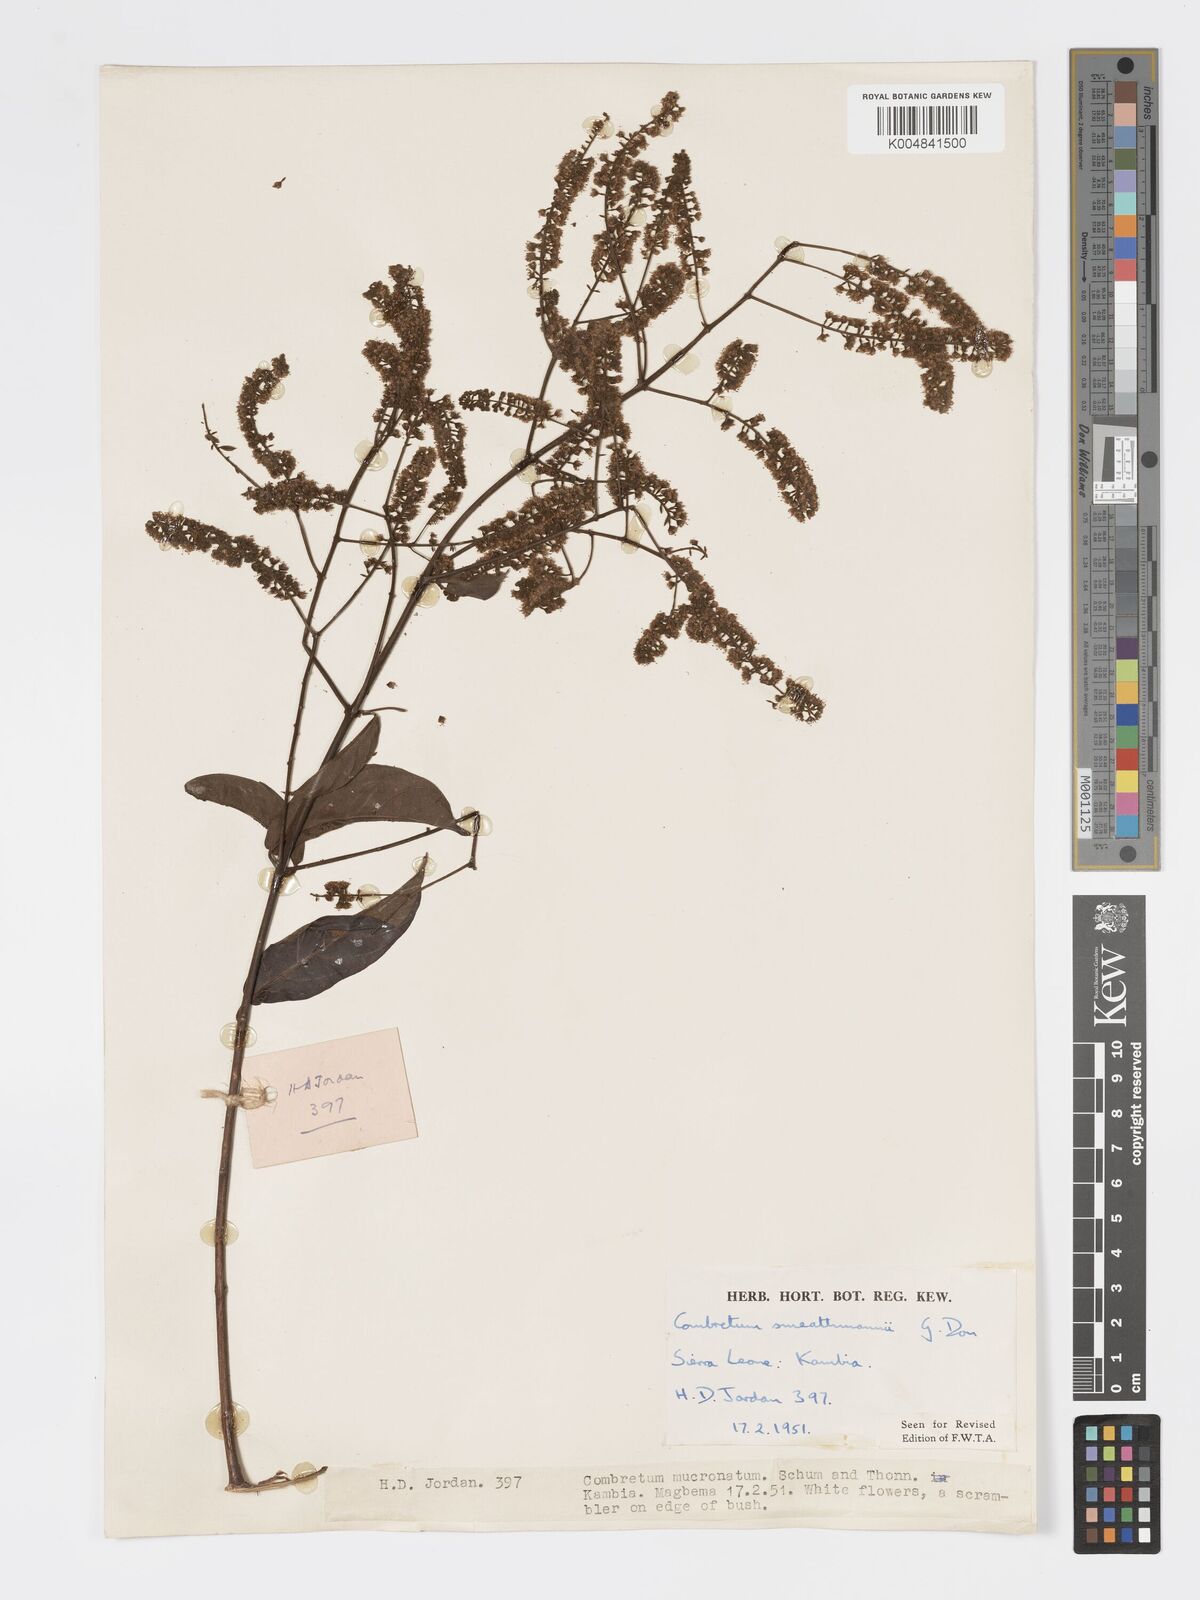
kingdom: Plantae
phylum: Tracheophyta
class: Magnoliopsida
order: Myrtales
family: Combretaceae
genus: Combretum
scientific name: Combretum mucronatum
